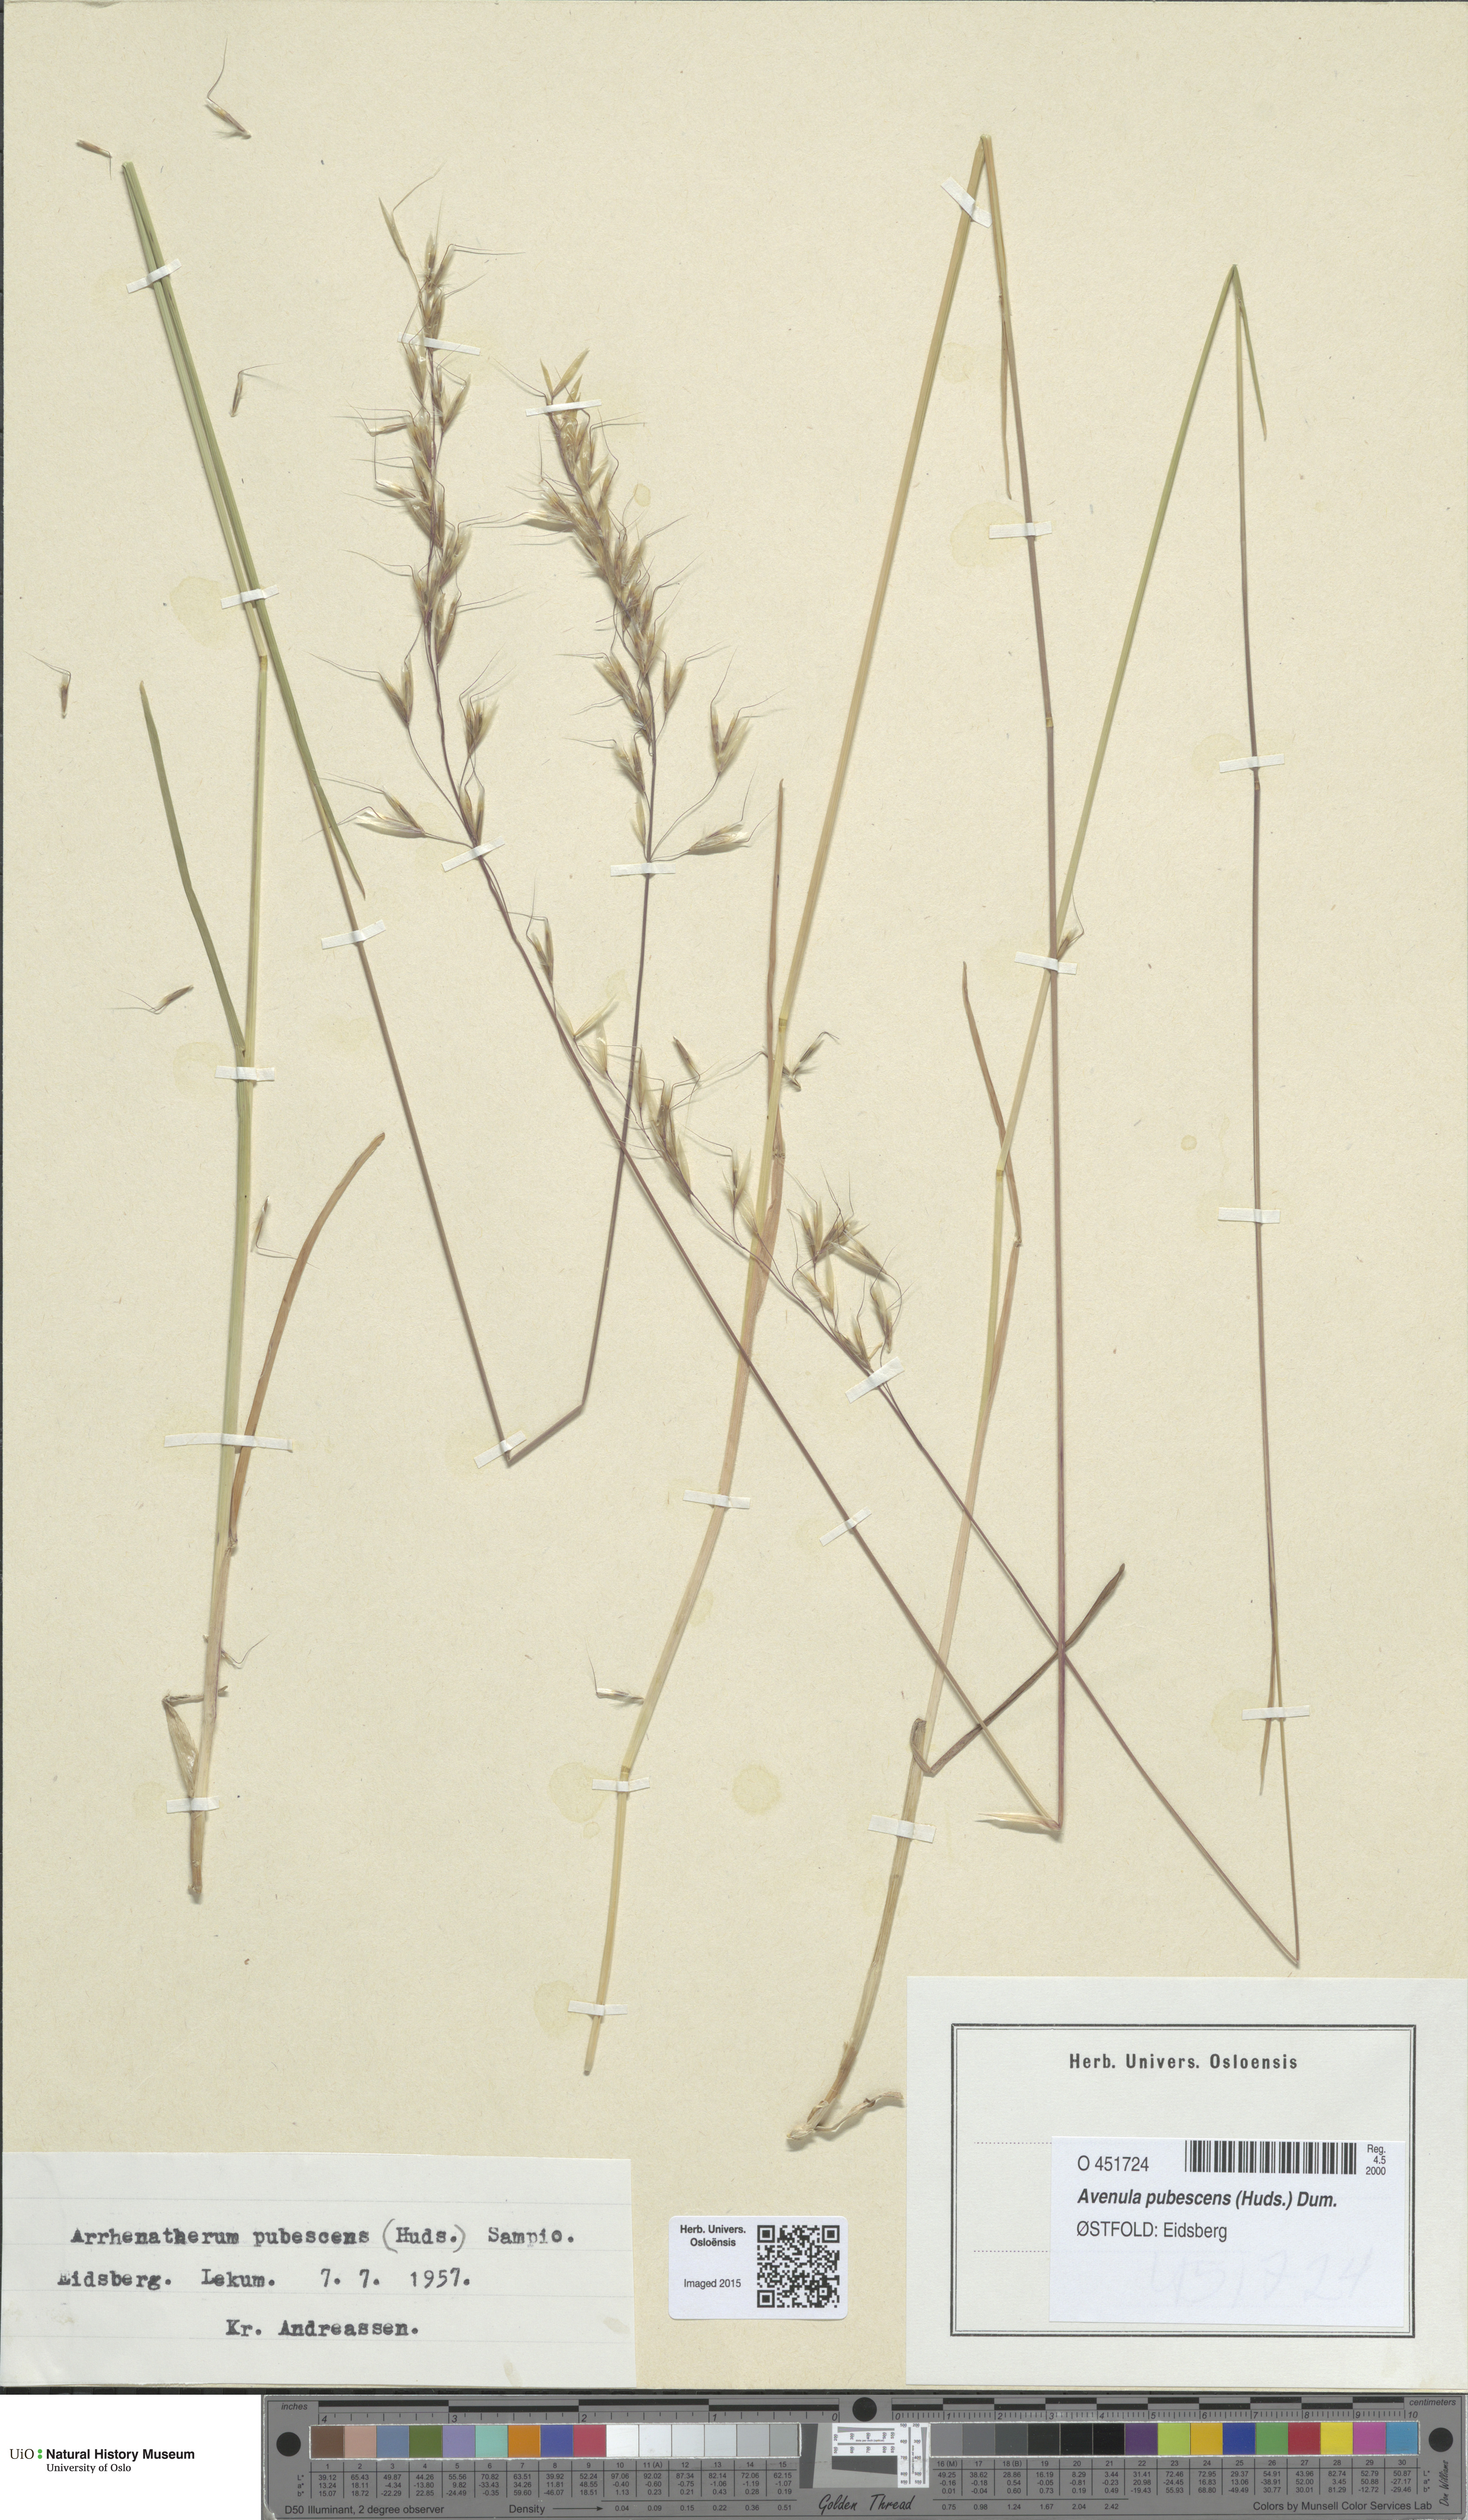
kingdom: Plantae
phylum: Tracheophyta
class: Liliopsida
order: Poales
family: Poaceae
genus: Avenula
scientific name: Avenula pubescens
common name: Downy alpine oatgrass
